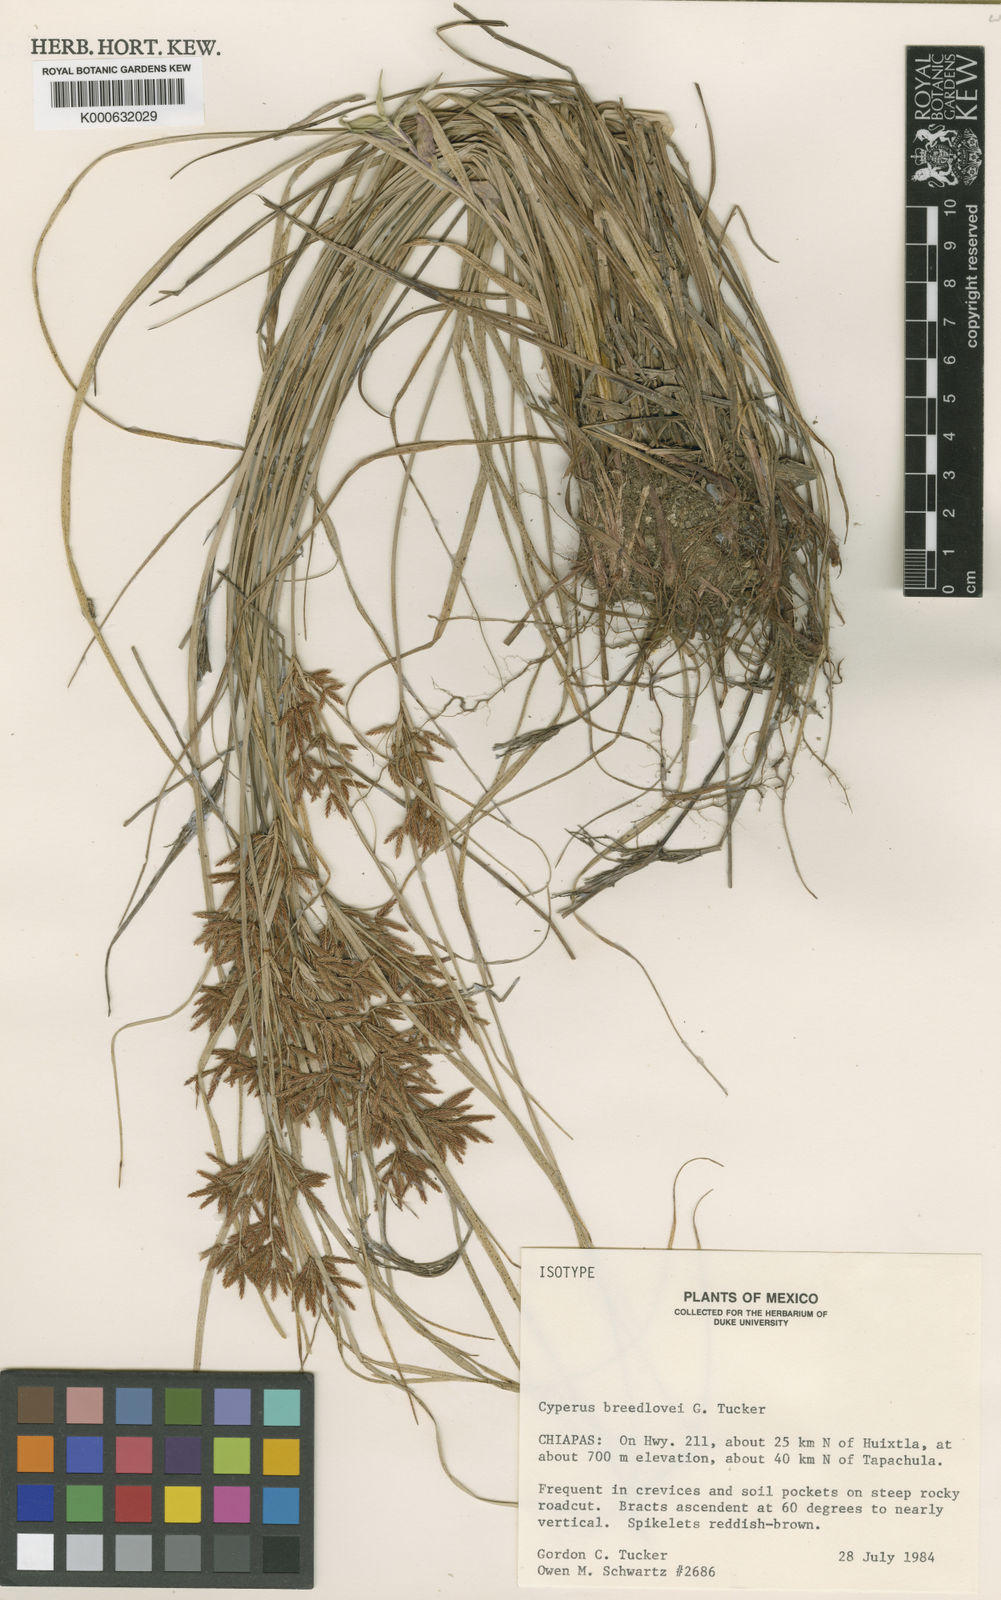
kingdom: Plantae
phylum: Tracheophyta
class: Liliopsida
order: Poales
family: Cyperaceae
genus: Cyperus
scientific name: Cyperus breedlovei
